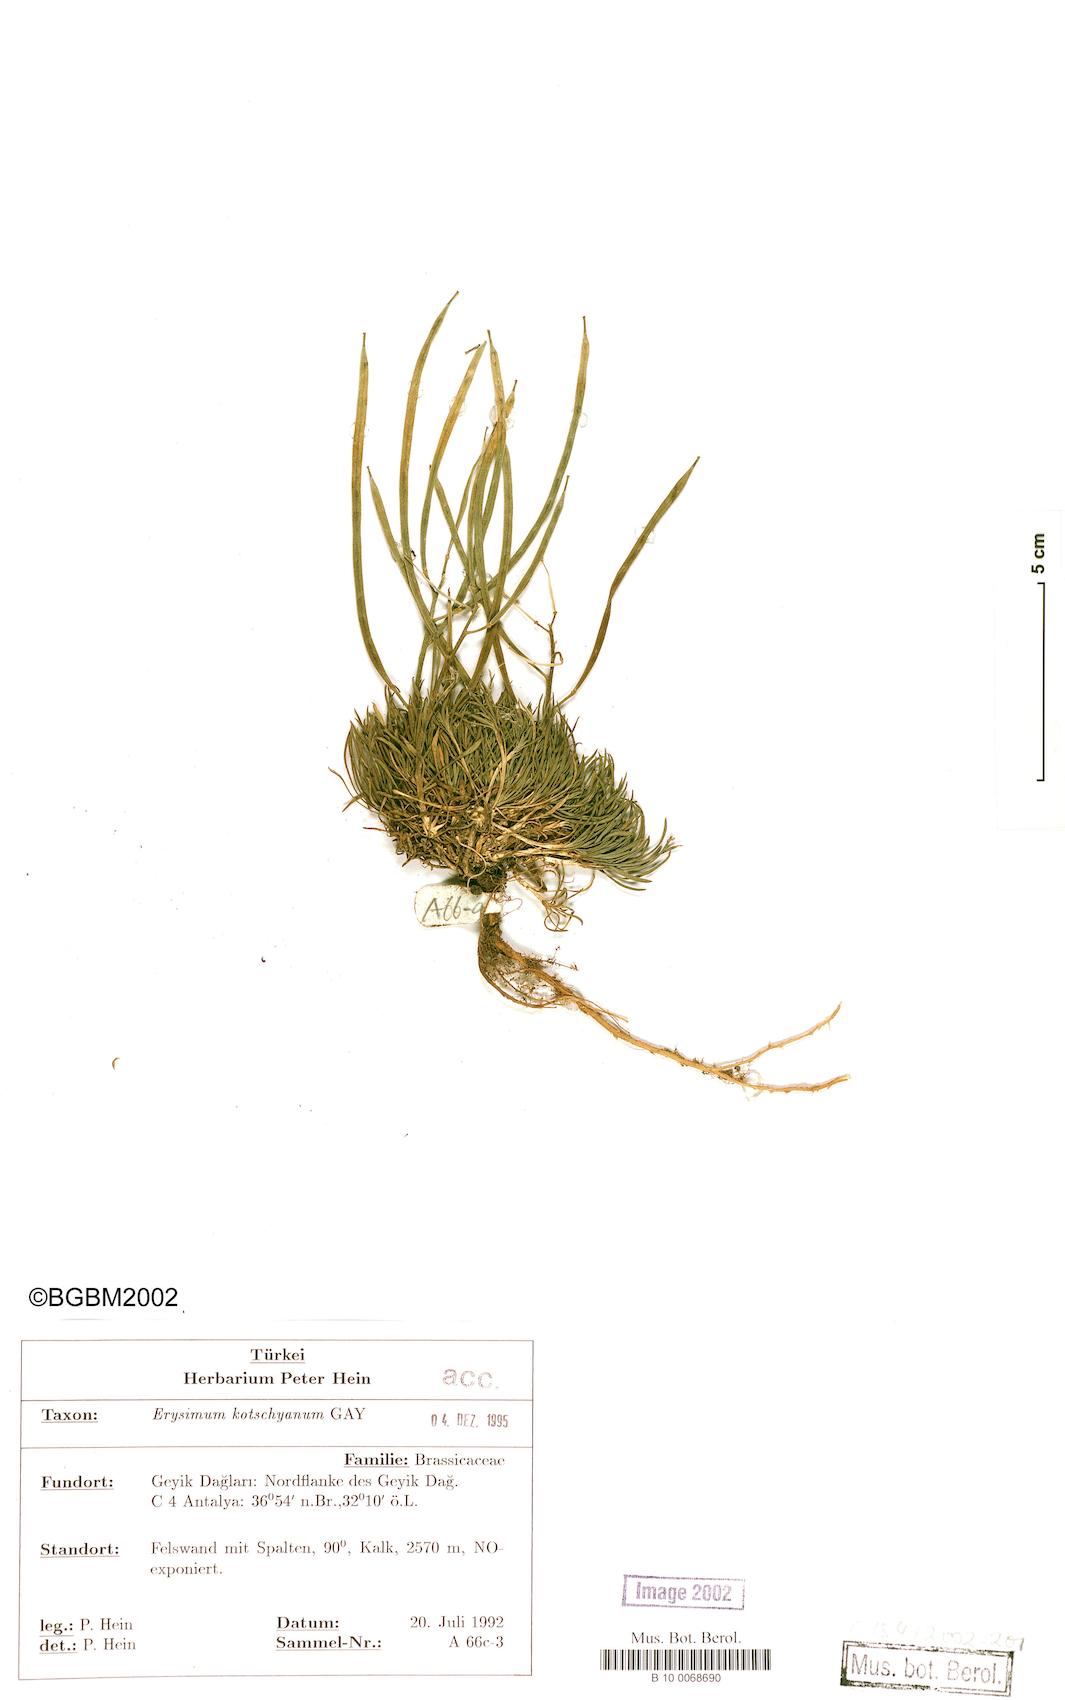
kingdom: Plantae
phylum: Tracheophyta
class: Magnoliopsida
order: Brassicales
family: Brassicaceae
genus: Erysimum
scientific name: Erysimum kotschyanum
